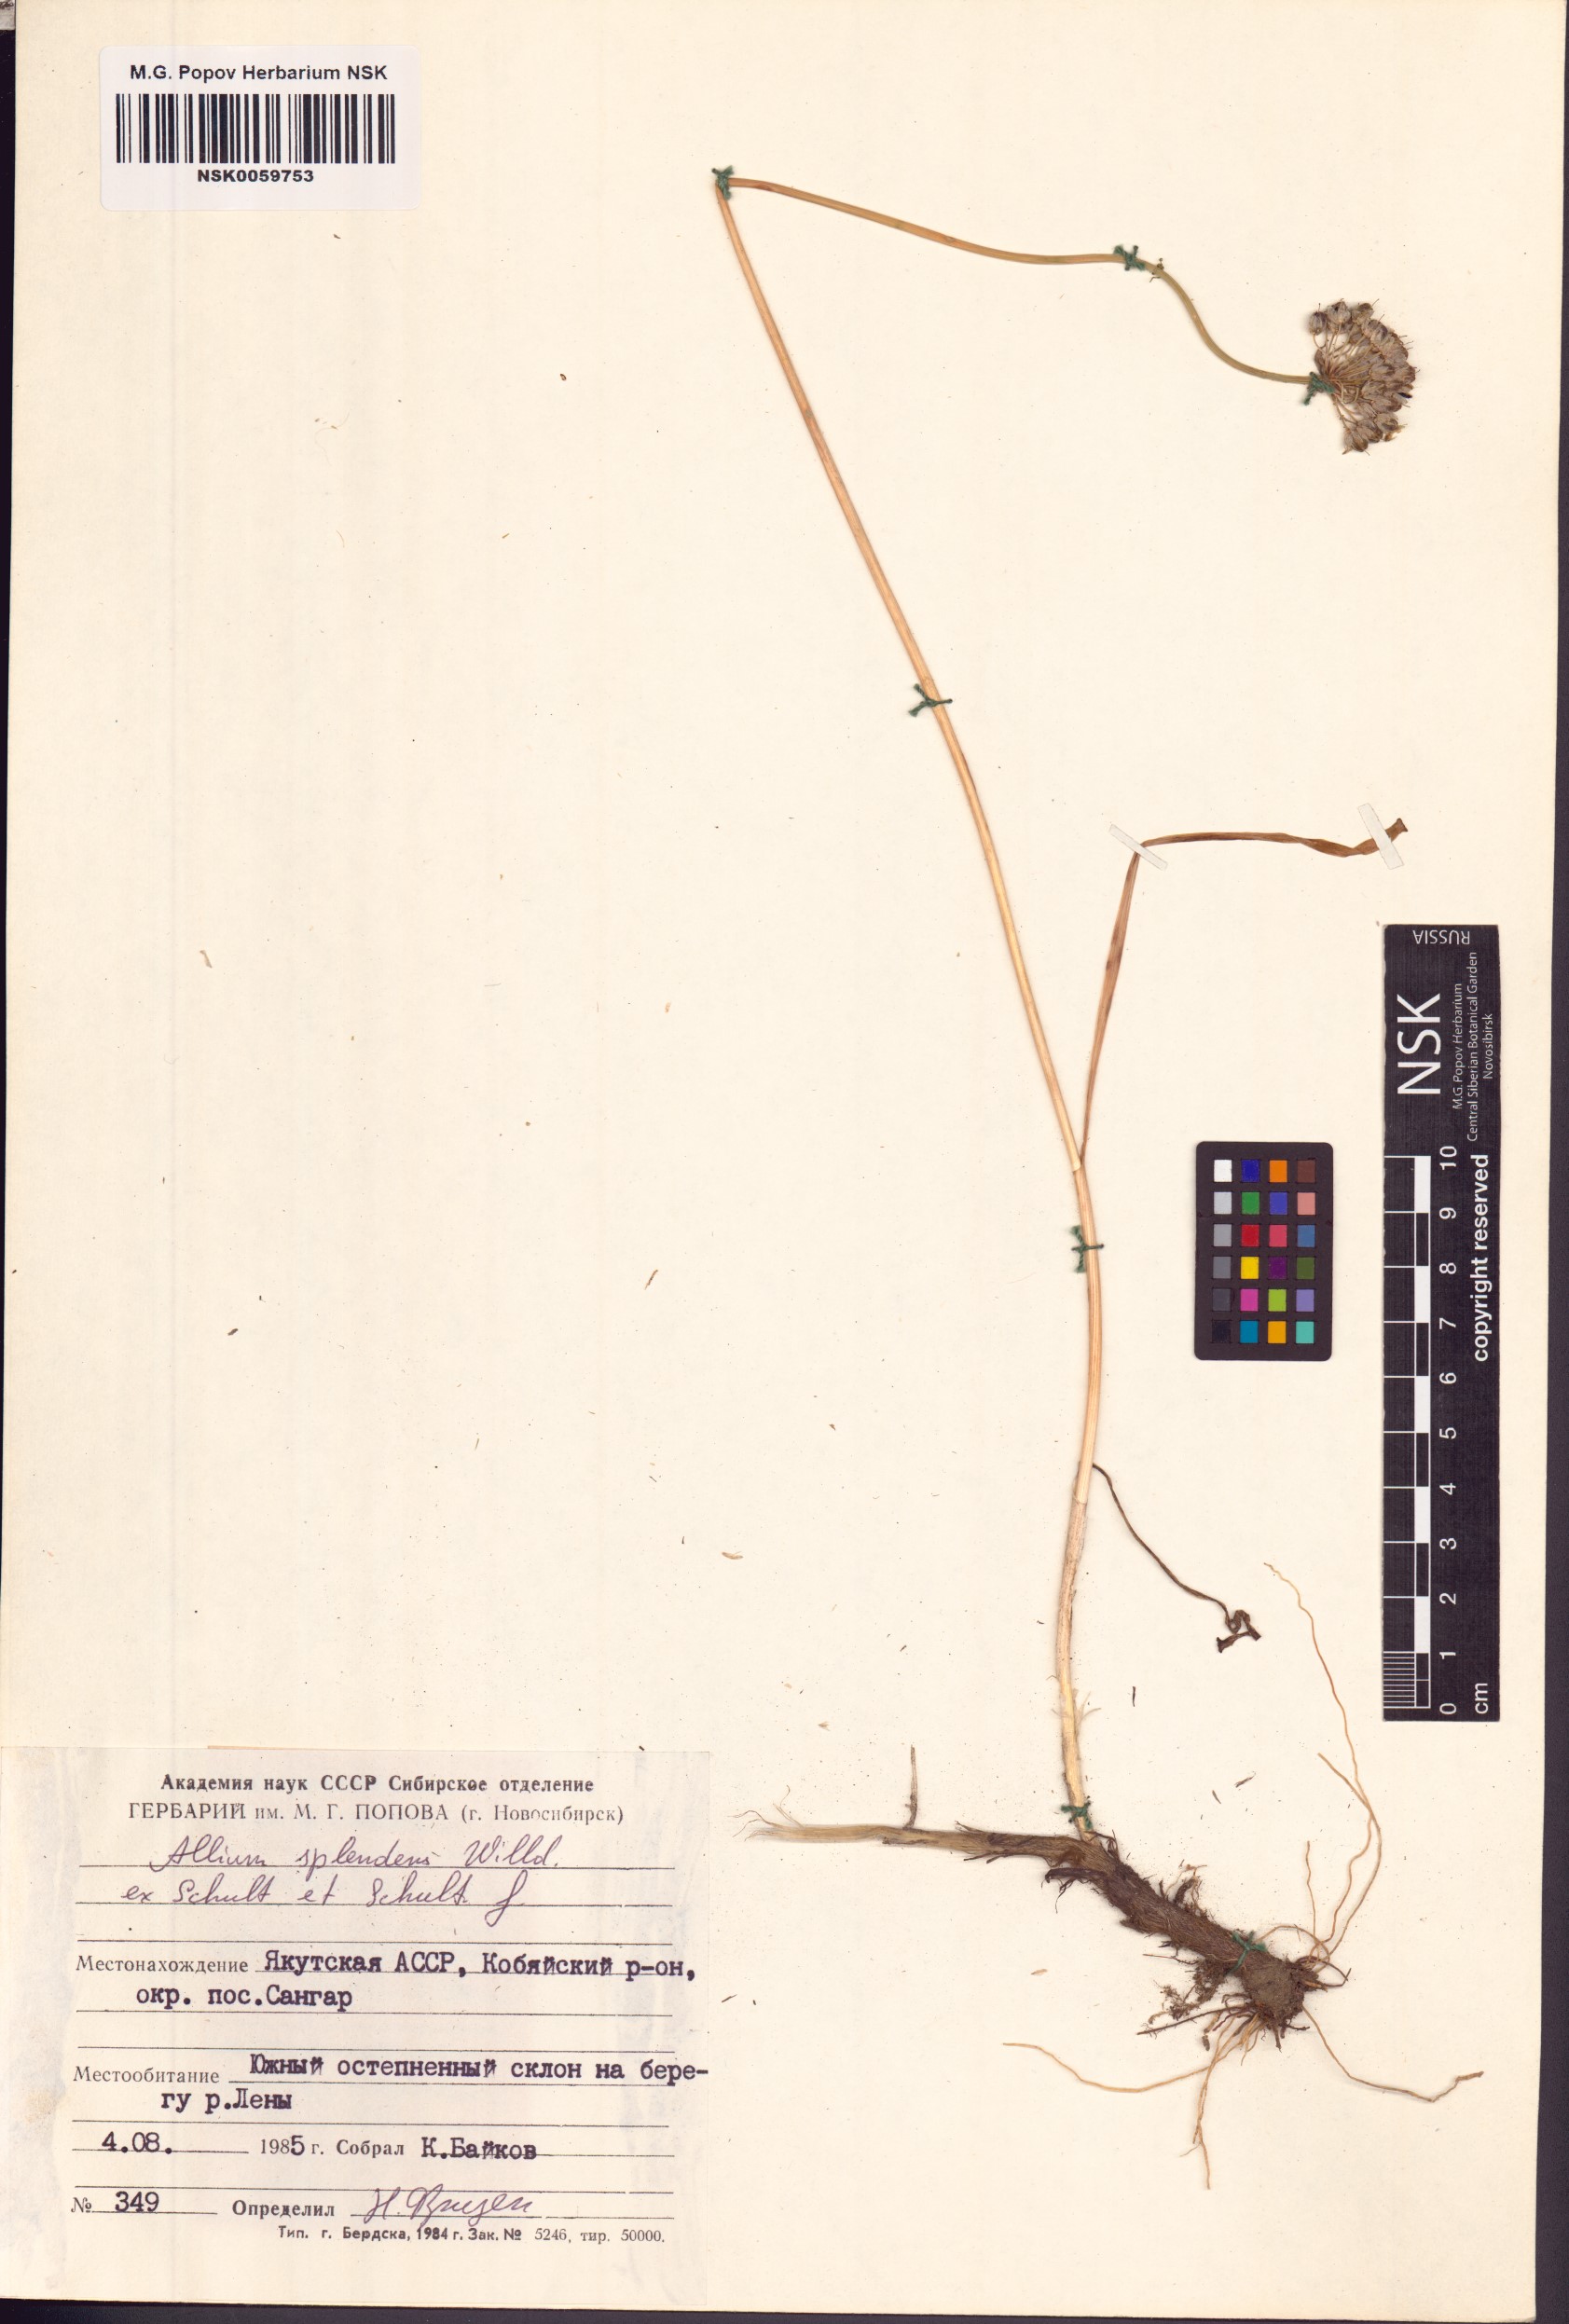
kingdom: Plantae
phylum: Tracheophyta
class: Liliopsida
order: Asparagales
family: Amaryllidaceae
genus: Allium
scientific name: Allium splendens
